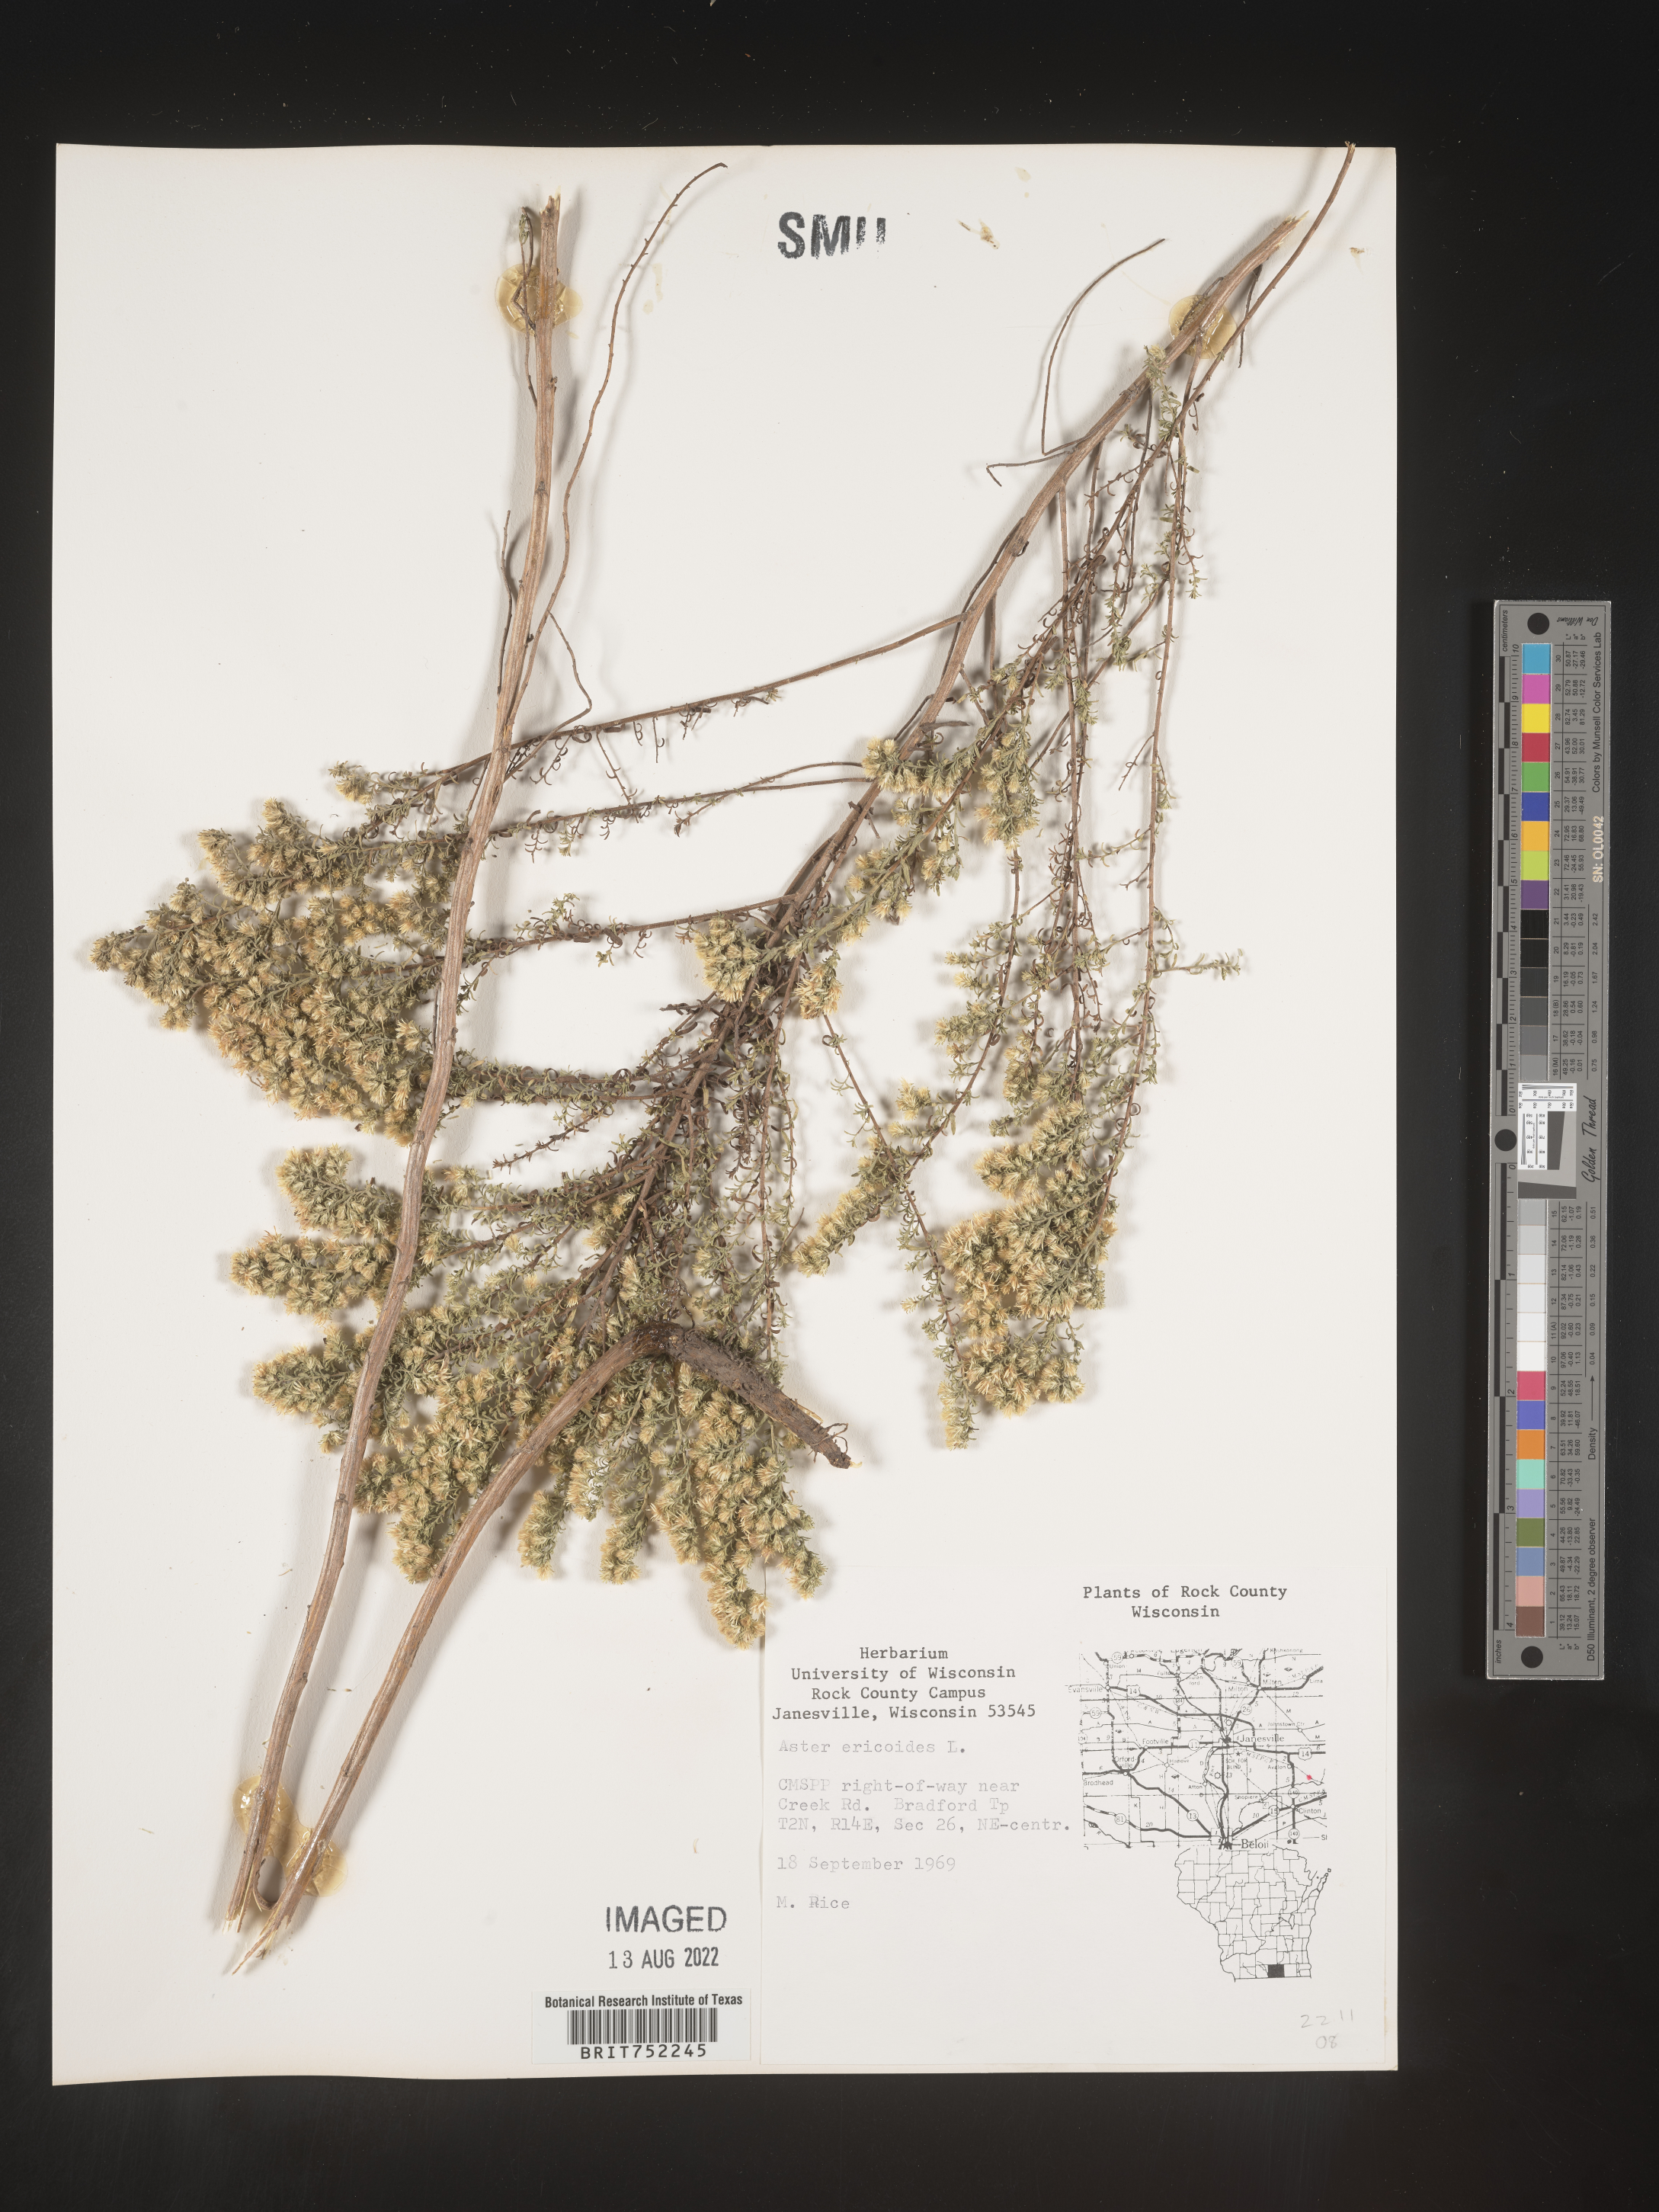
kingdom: Plantae
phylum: Tracheophyta
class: Magnoliopsida
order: Asterales
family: Asteraceae
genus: Symphyotrichum
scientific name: Symphyotrichum ericoides
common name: Heath aster
